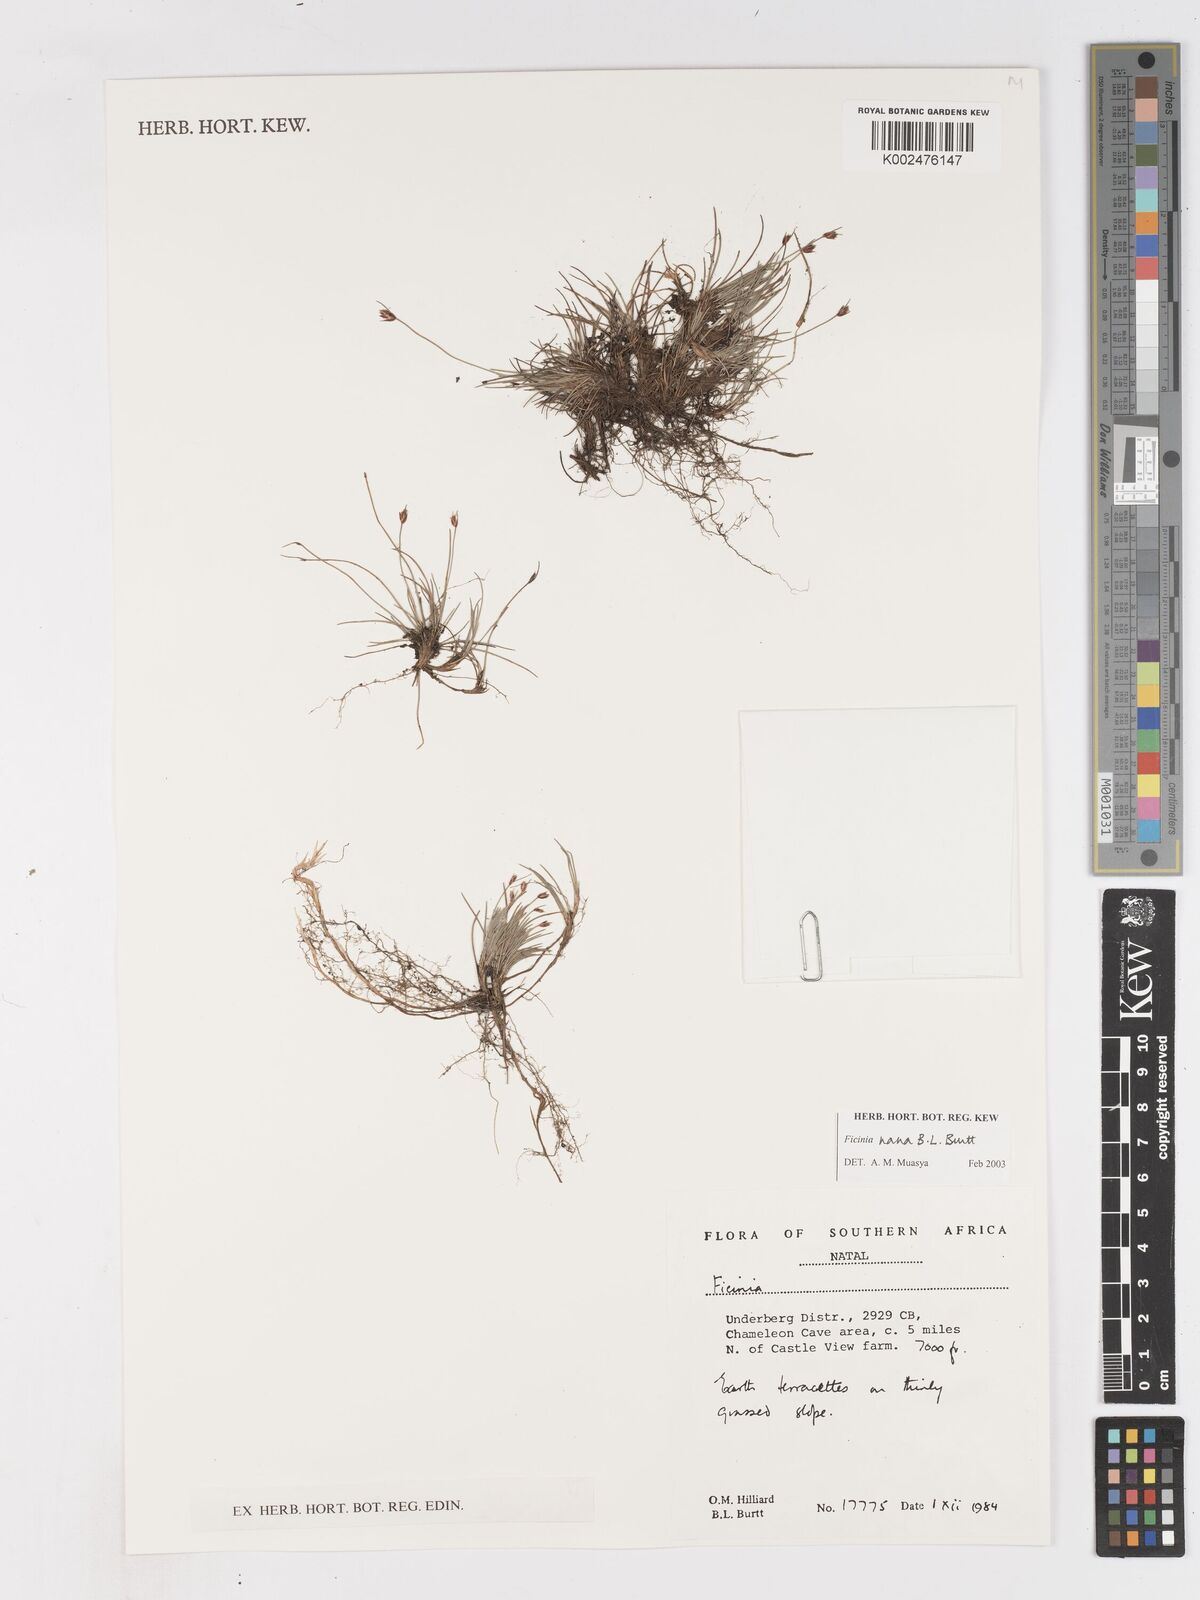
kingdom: Plantae
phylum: Tracheophyta
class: Liliopsida
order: Poales
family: Cyperaceae
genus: Ficinia
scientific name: Ficinia nana
